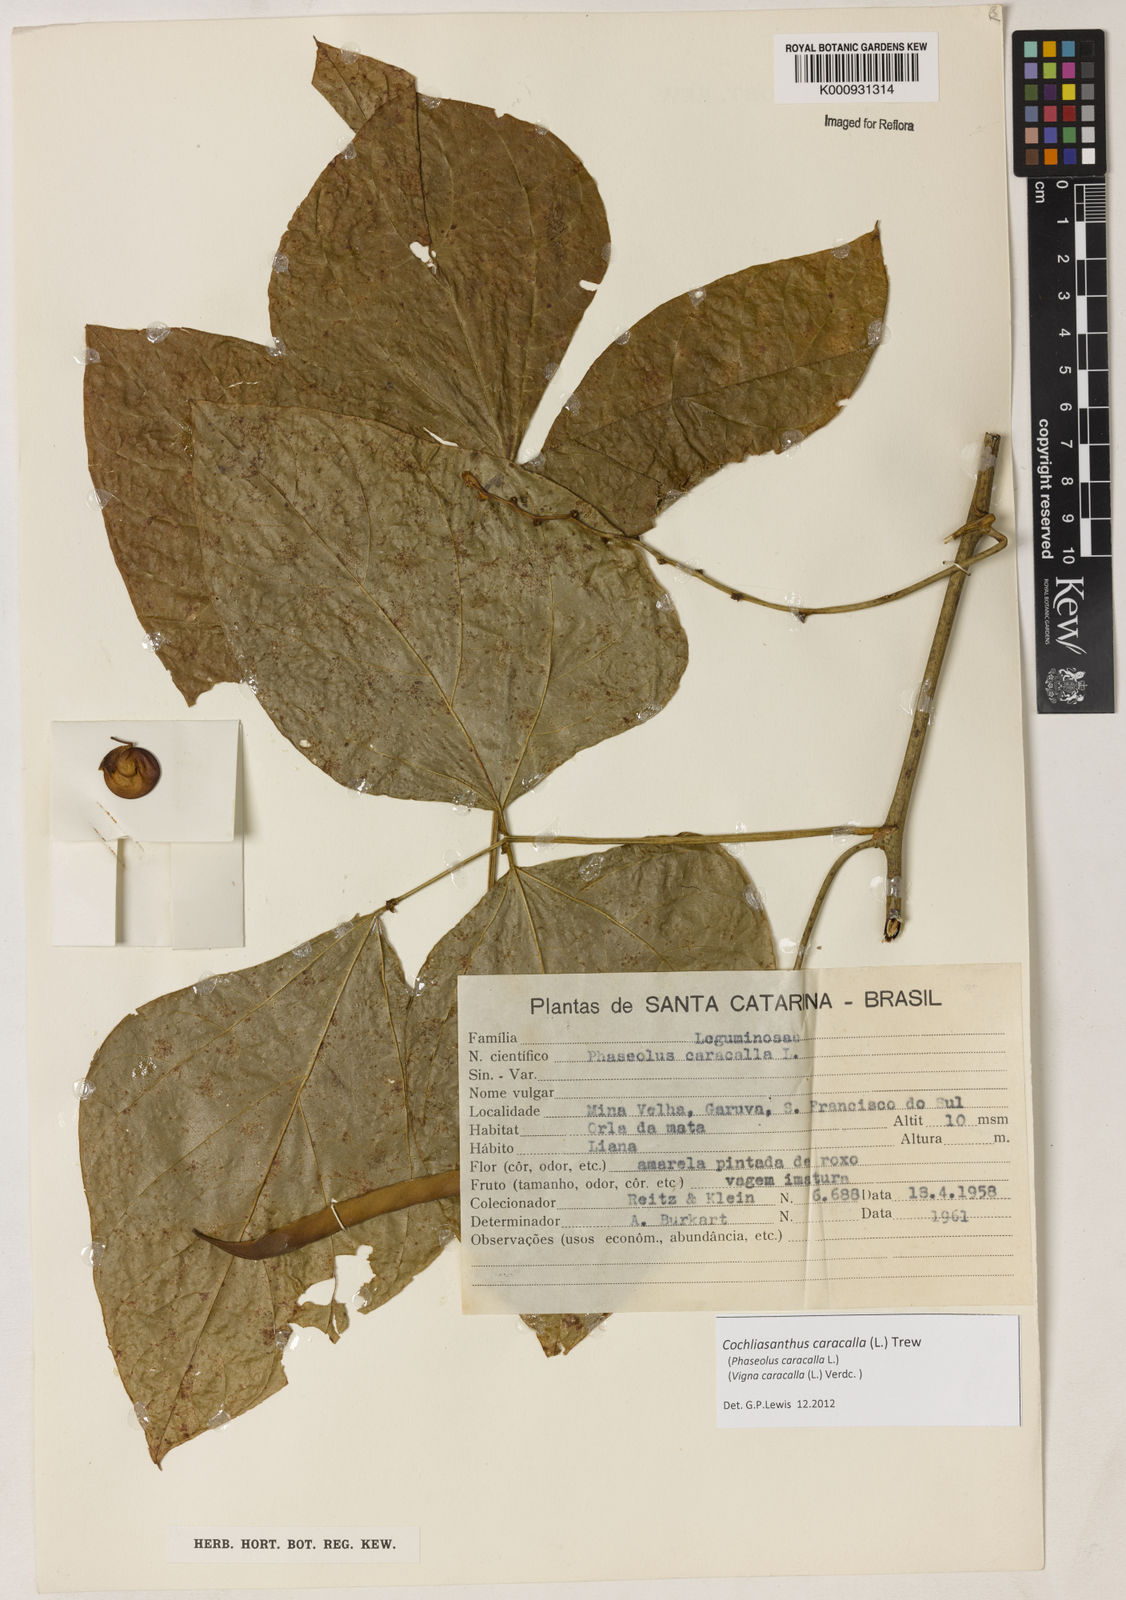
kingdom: Plantae
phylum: Tracheophyta
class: Magnoliopsida
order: Fabales
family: Fabaceae
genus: Cochliasanthus
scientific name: Cochliasanthus caracalla
